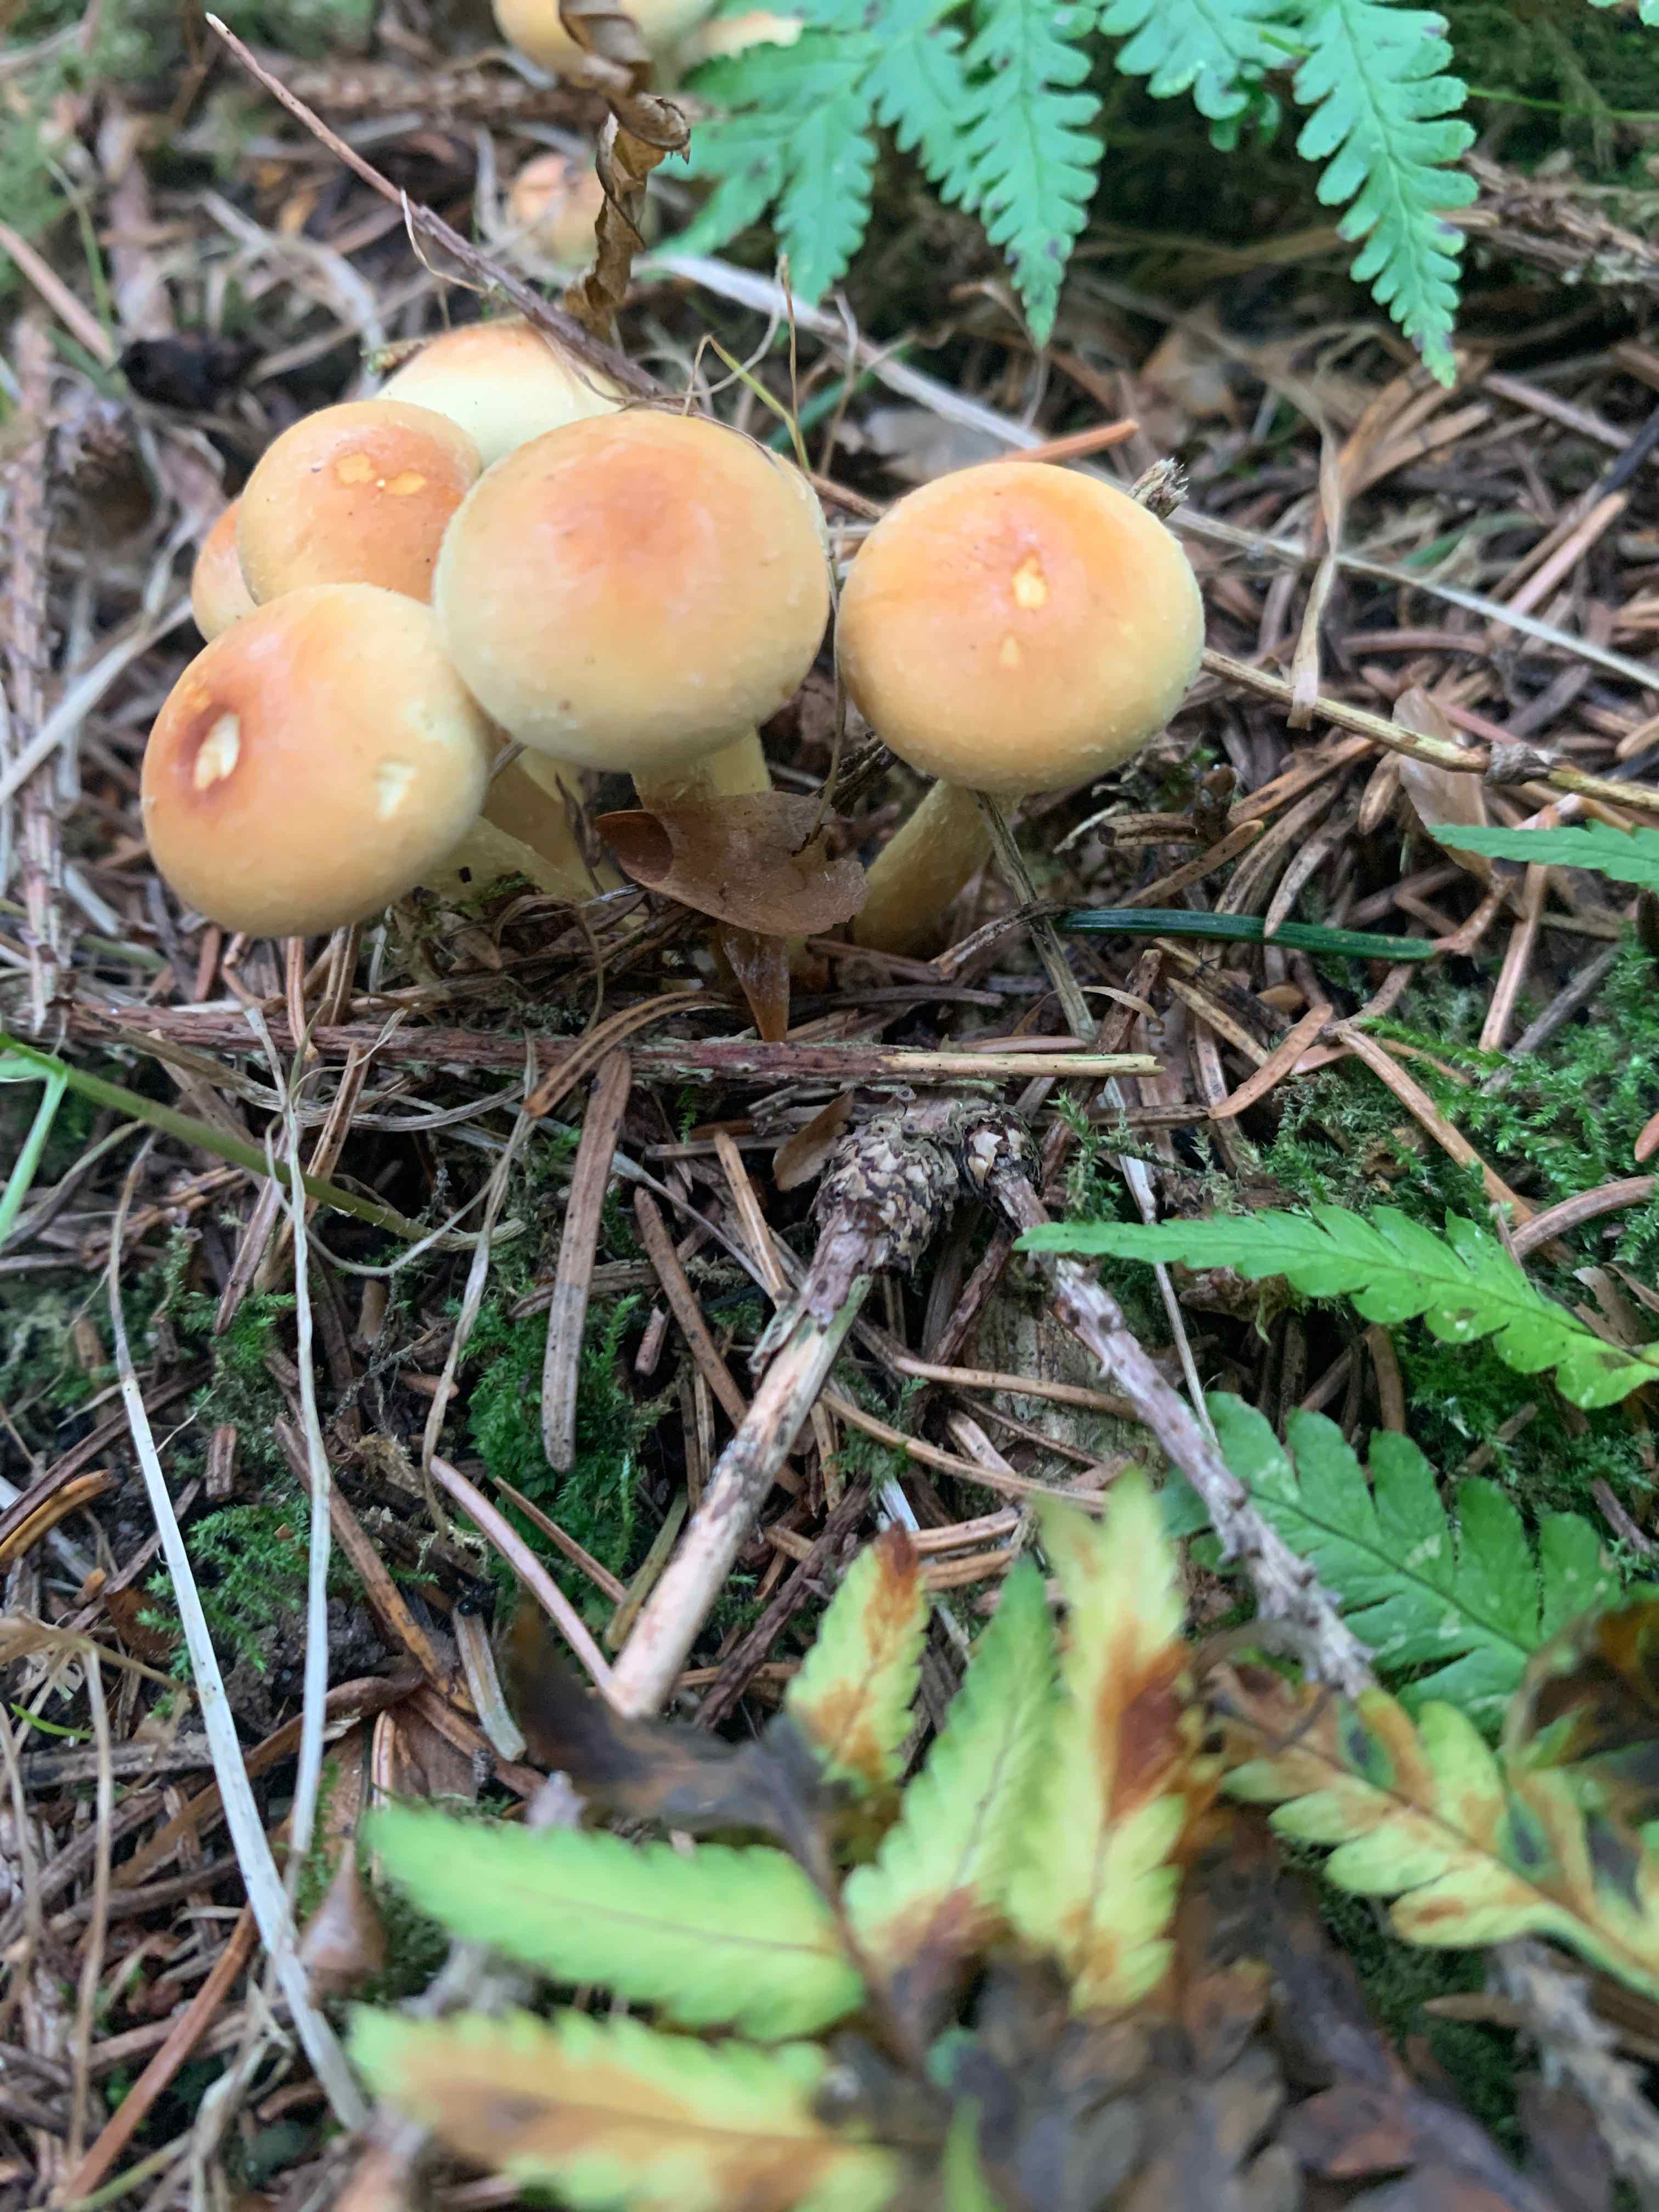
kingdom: Fungi
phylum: Basidiomycota
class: Agaricomycetes
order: Agaricales
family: Strophariaceae
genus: Hypholoma
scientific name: Hypholoma
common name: svovlhat
